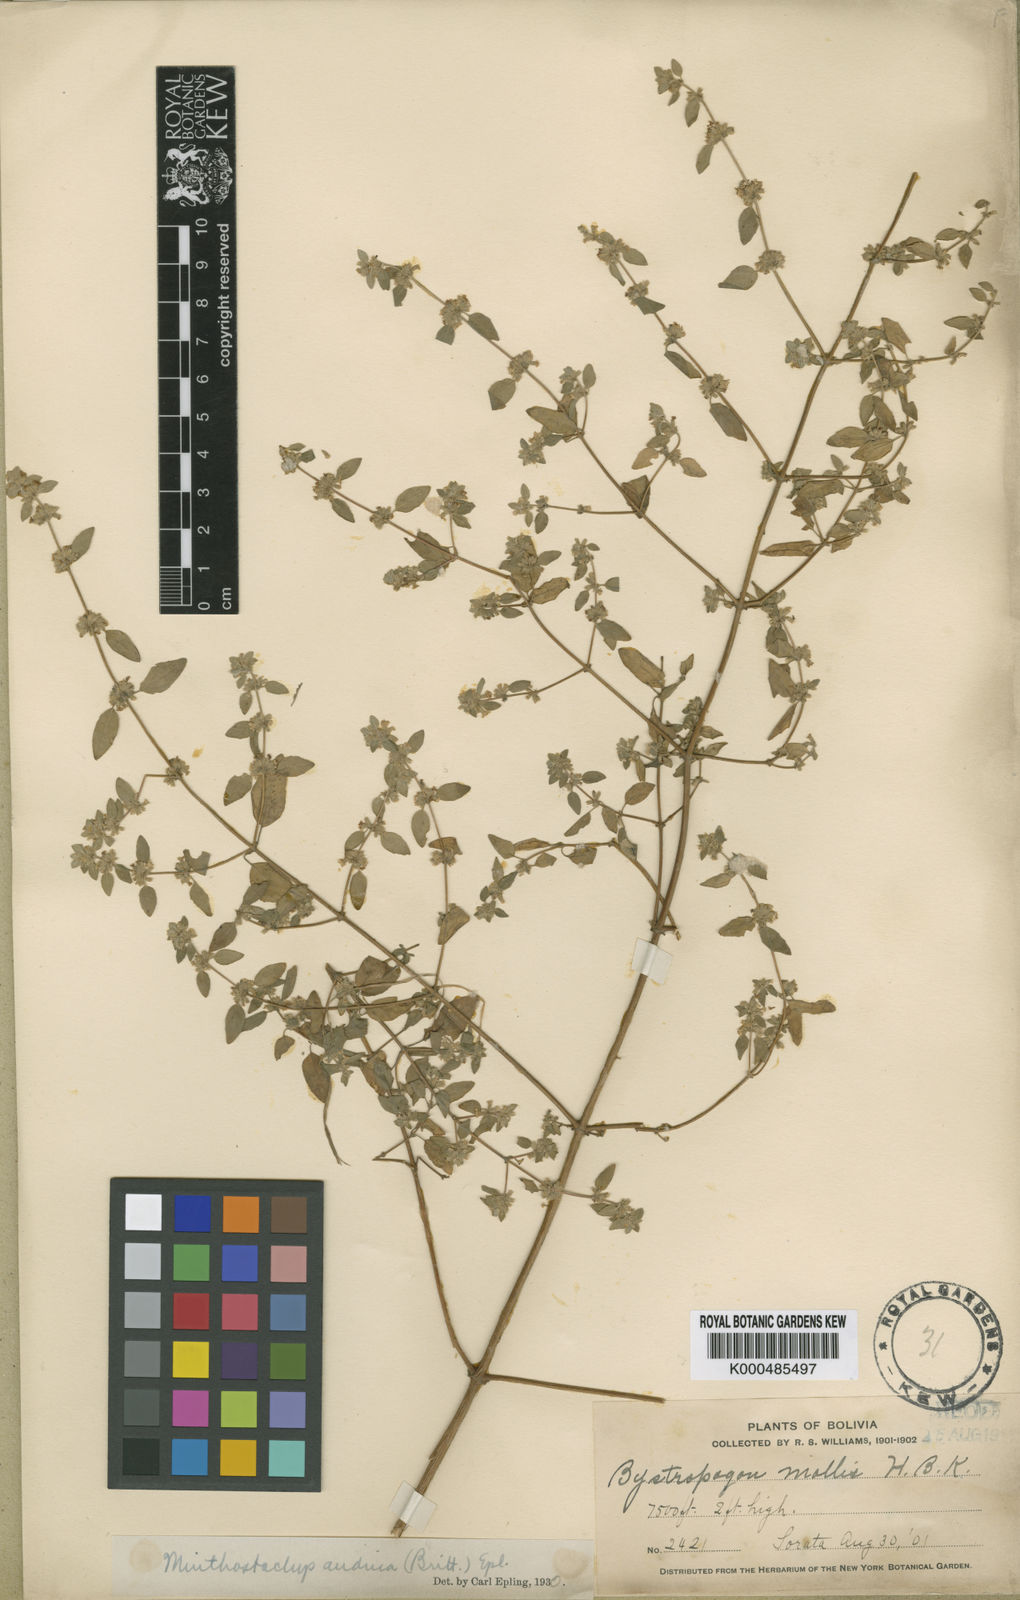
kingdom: Plantae
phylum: Tracheophyta
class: Magnoliopsida
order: Lamiales
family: Lamiaceae
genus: Minthostachys
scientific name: Minthostachys andina
